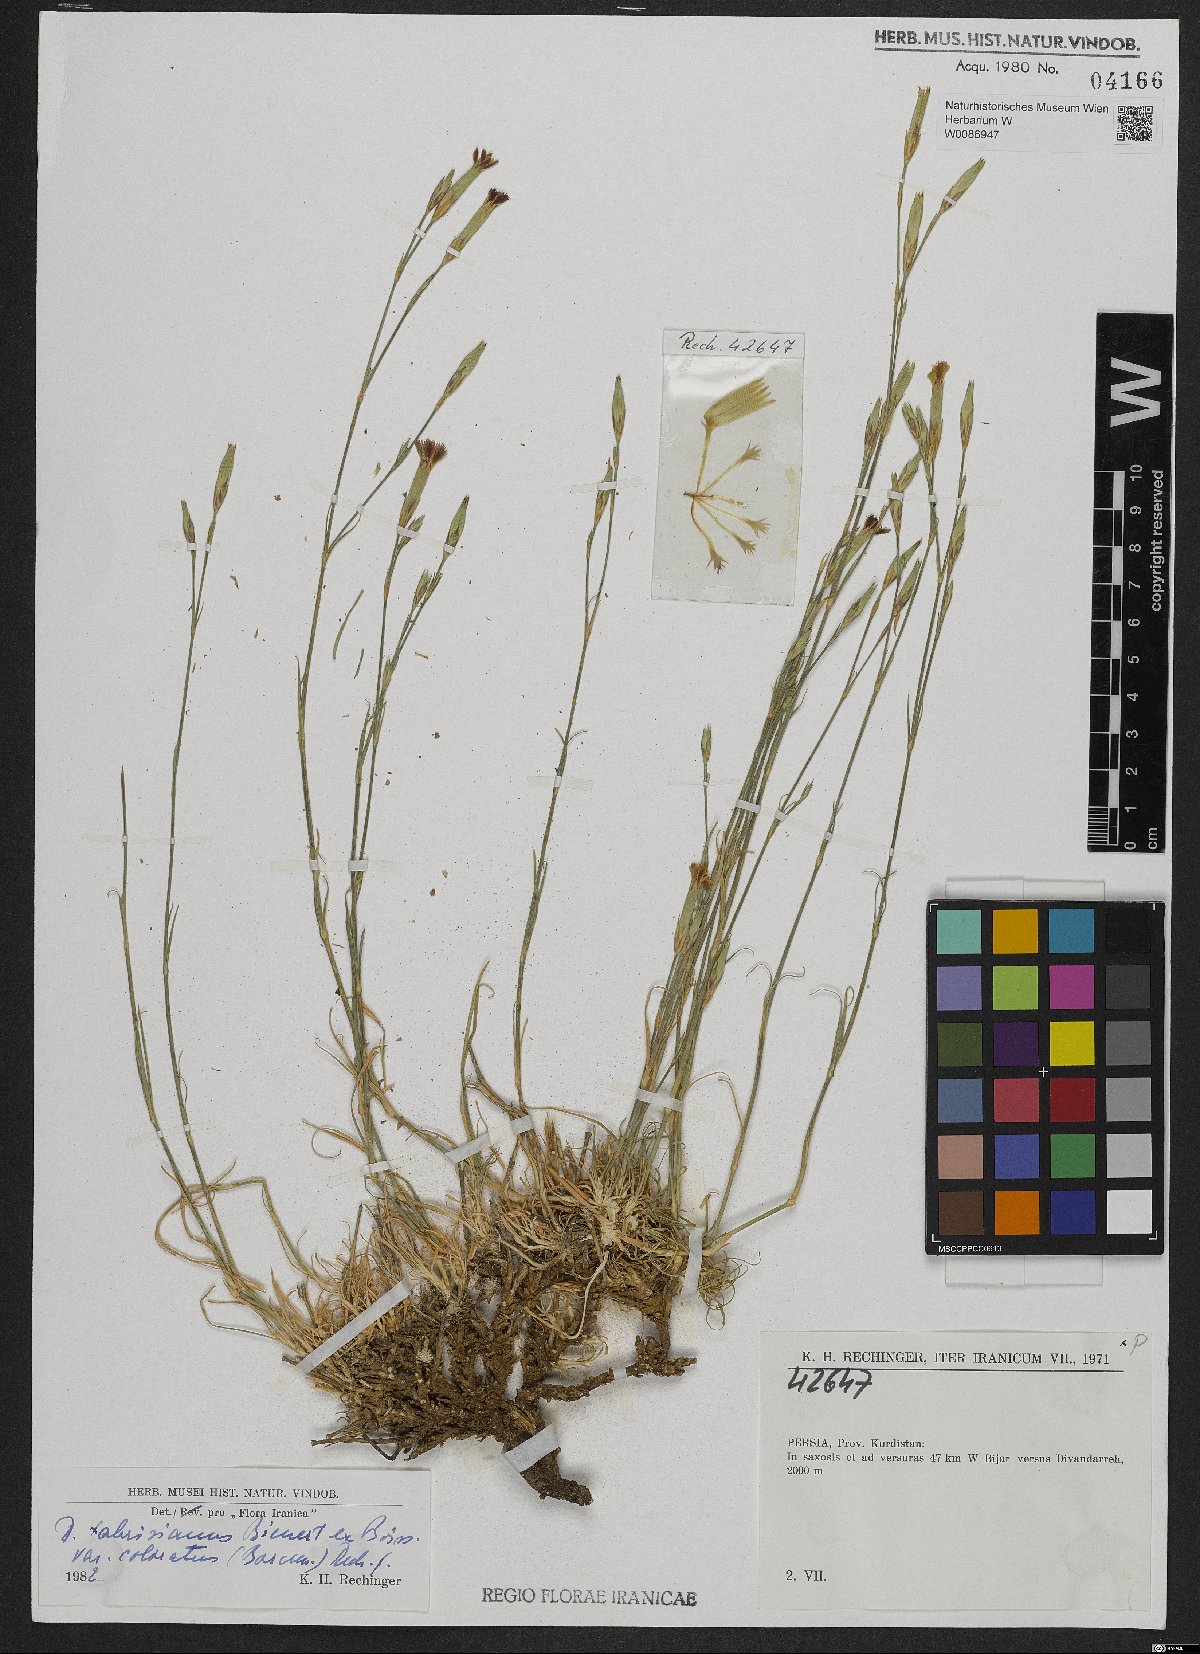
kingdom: Plantae
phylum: Tracheophyta
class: Magnoliopsida
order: Caryophyllales
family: Caryophyllaceae
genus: Dianthus
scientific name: Dianthus tabrisianus
